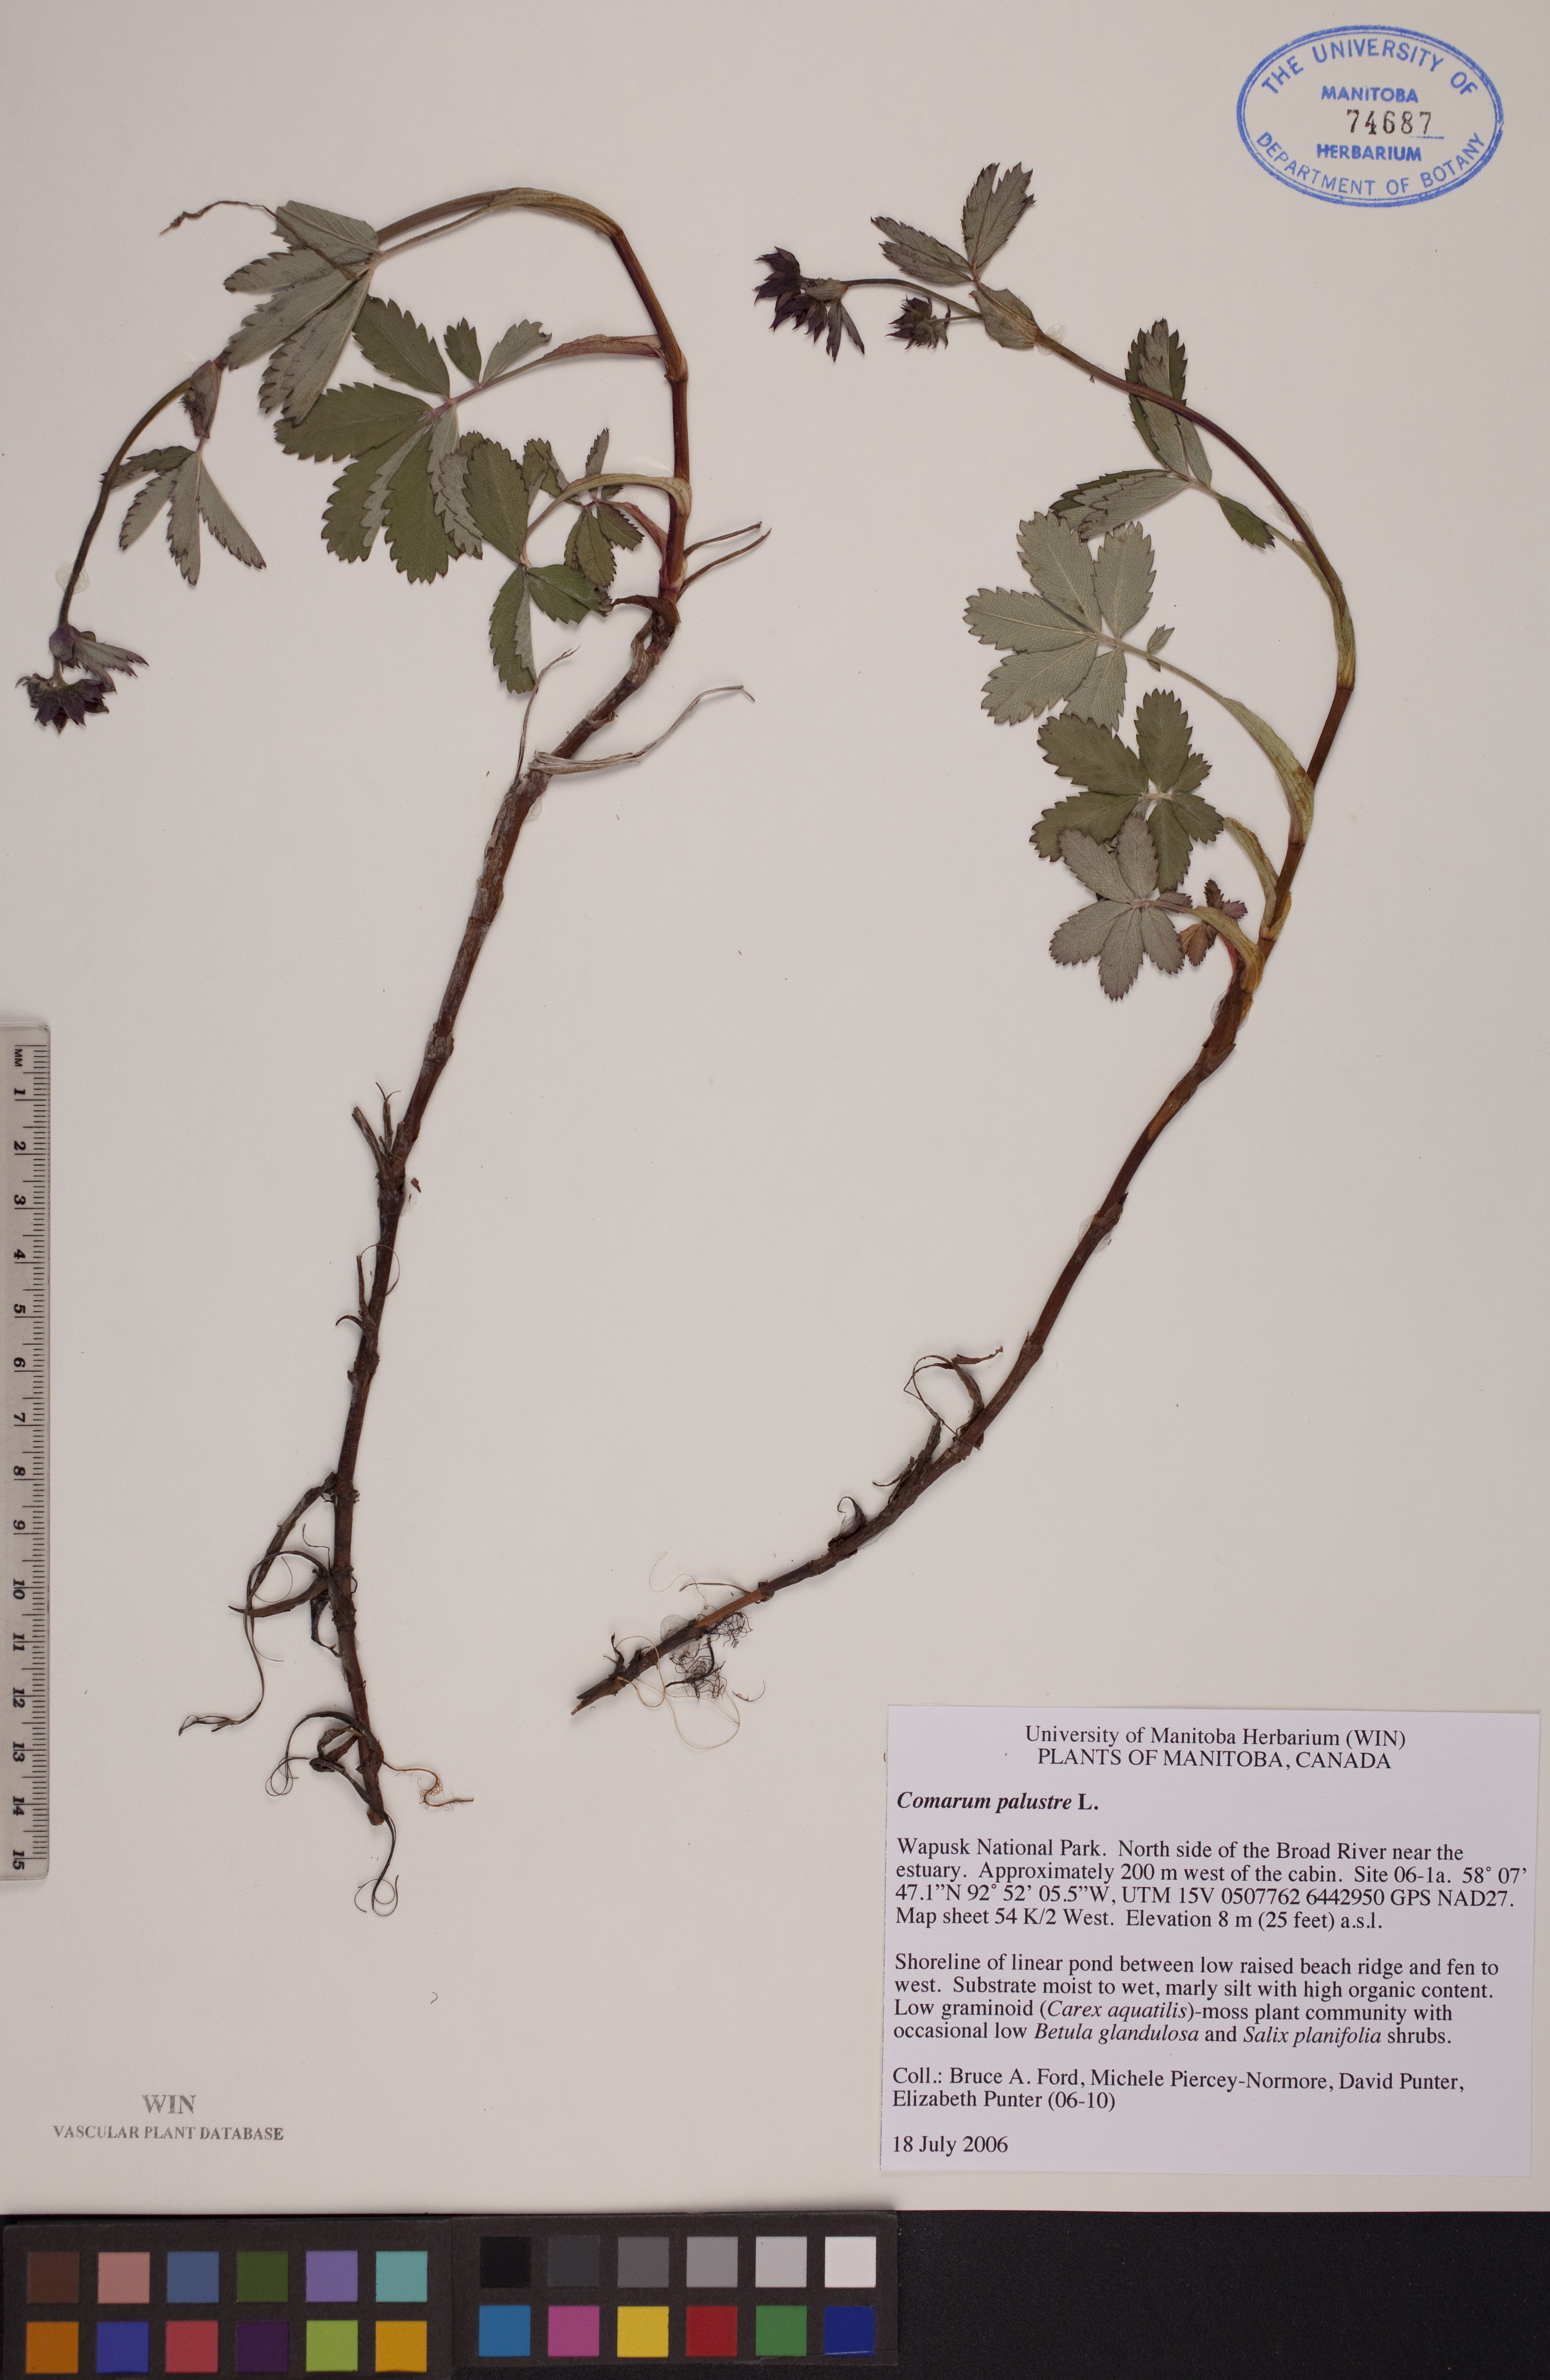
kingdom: Plantae
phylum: Tracheophyta
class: Magnoliopsida
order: Rosales
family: Rosaceae
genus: Comarum
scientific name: Comarum palustre
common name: Marsh cinquefoil
